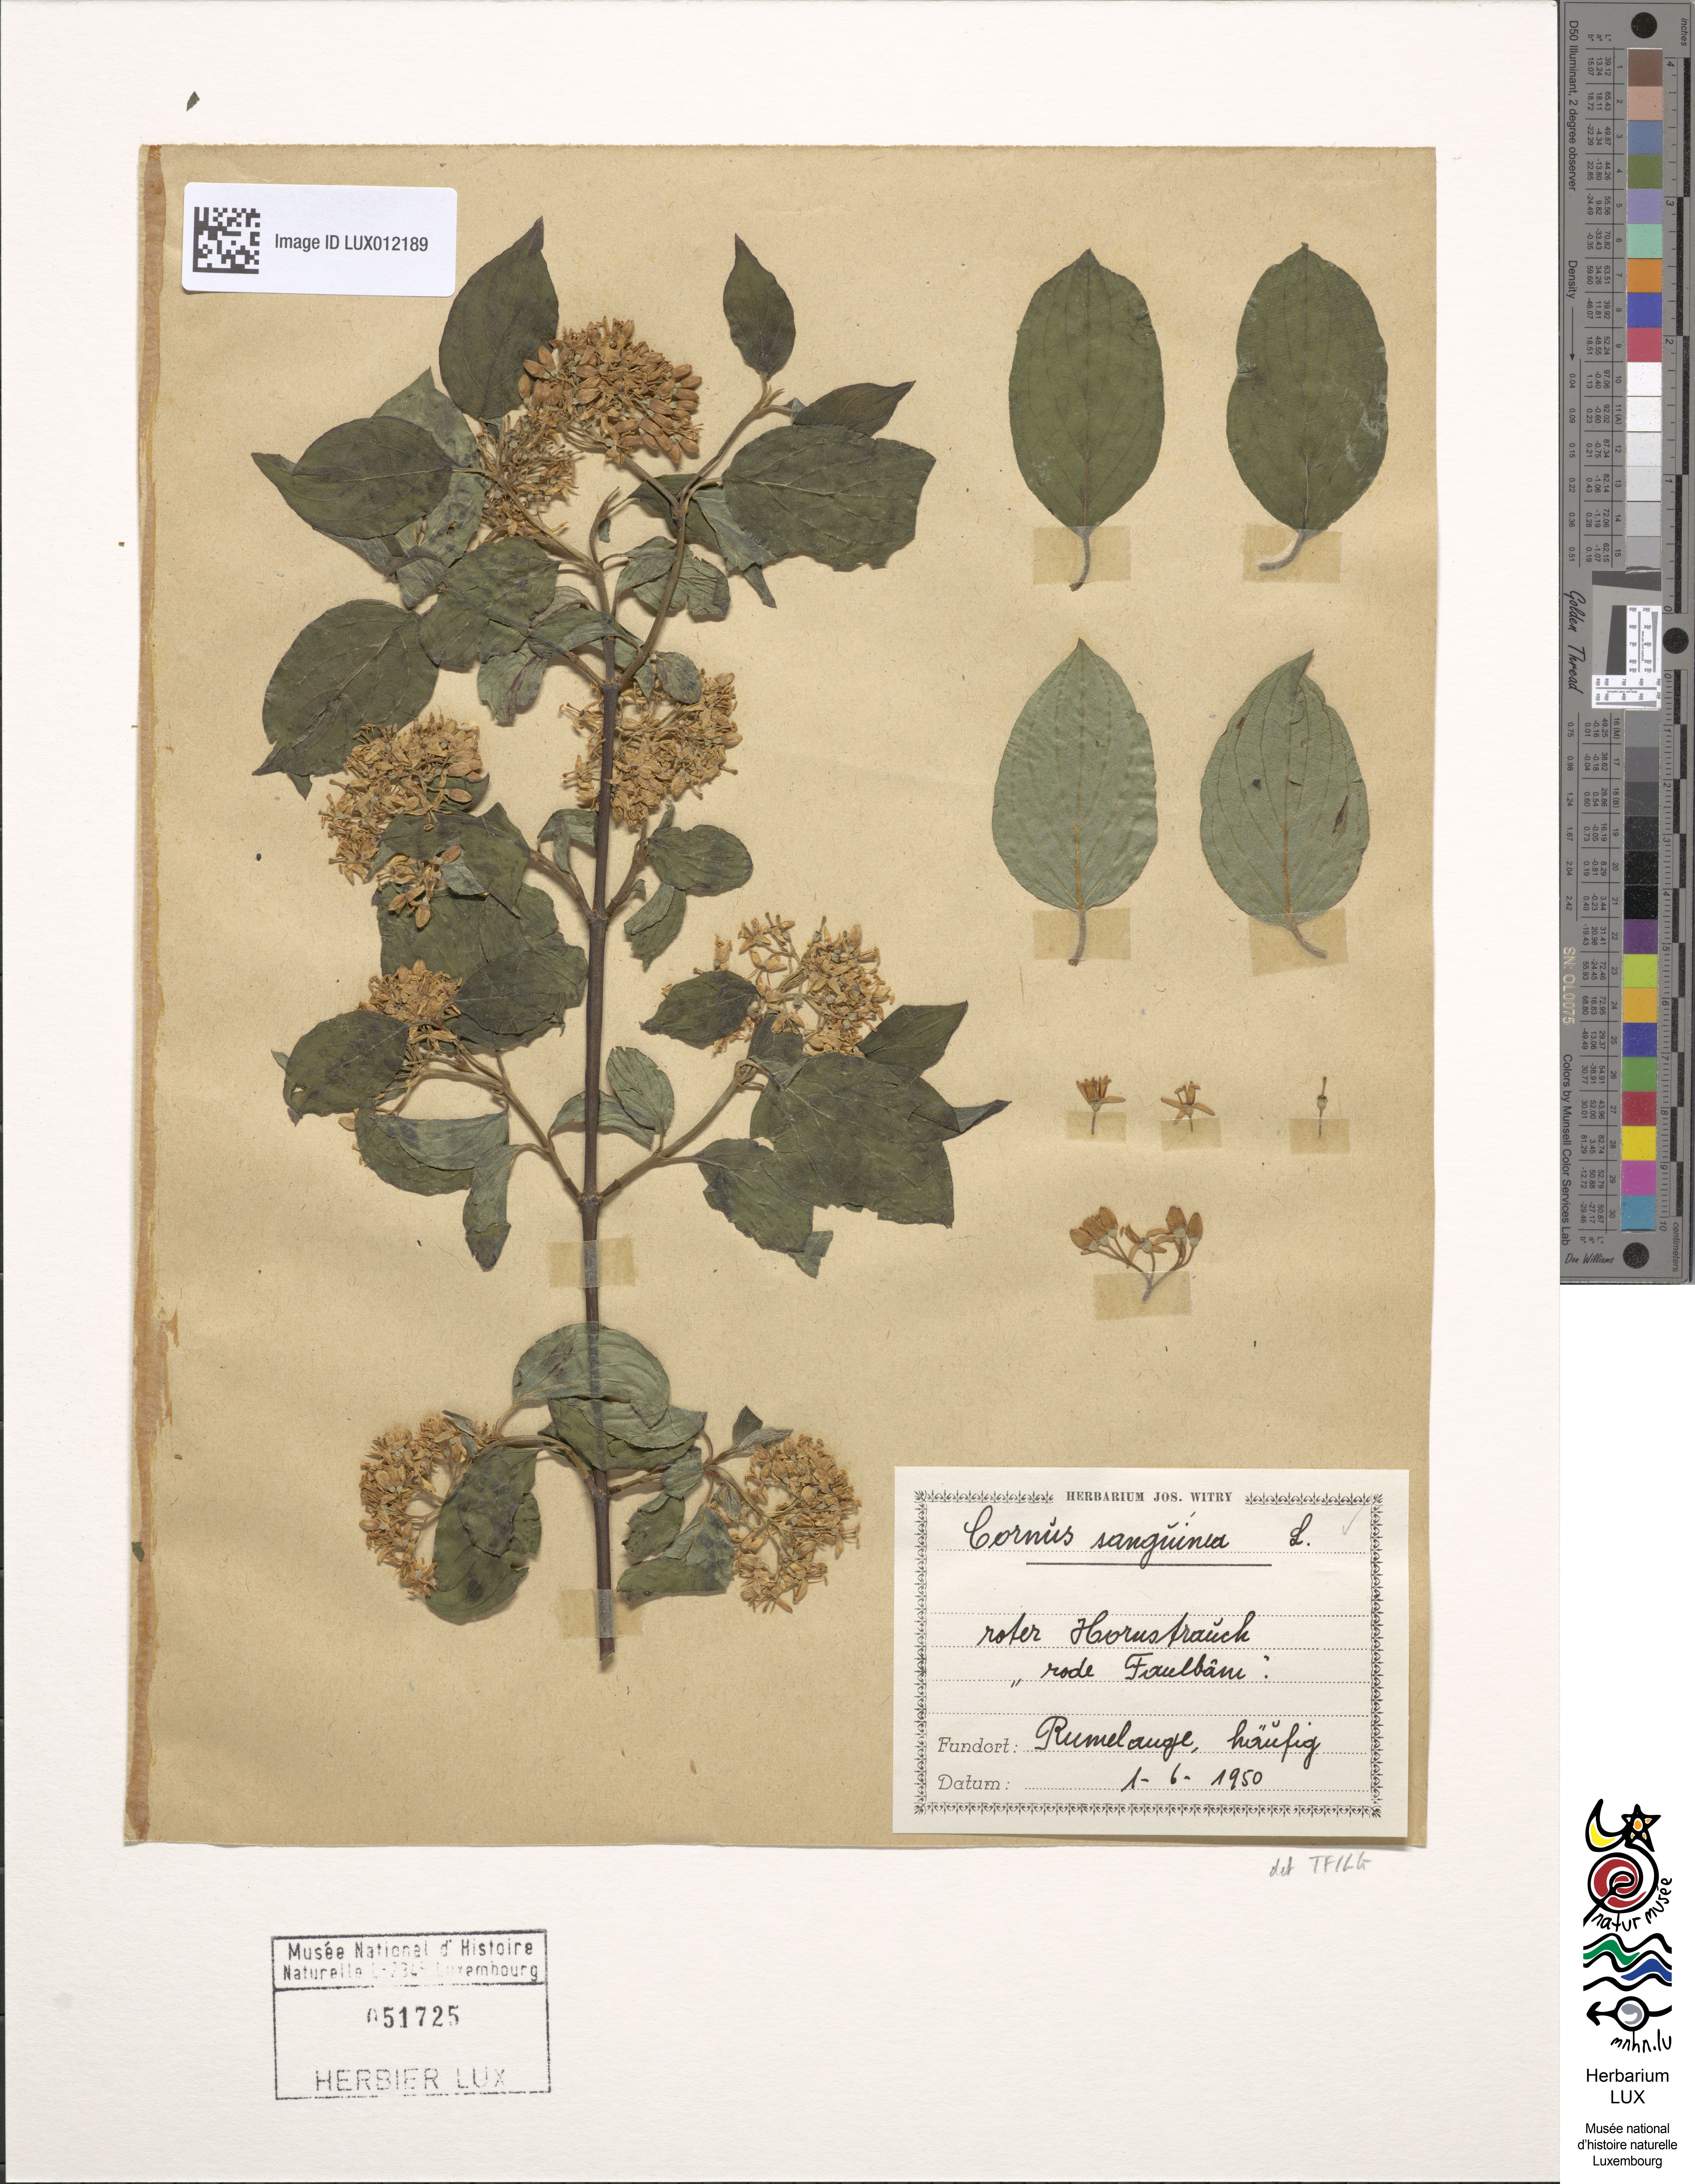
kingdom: Plantae
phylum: Tracheophyta
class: Magnoliopsida
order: Cornales
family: Cornaceae
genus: Cornus
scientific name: Cornus sanguinea
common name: Dogwood
